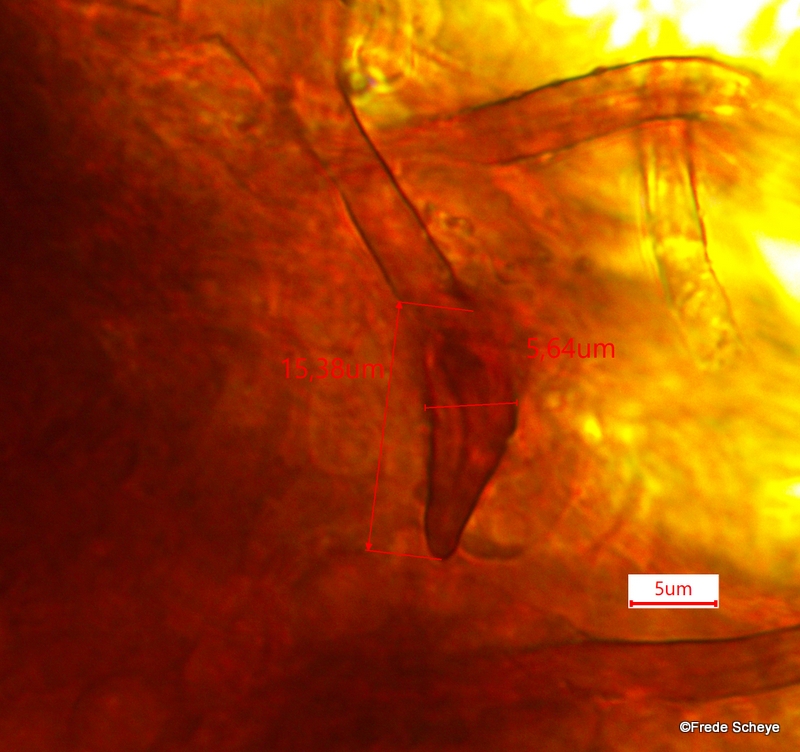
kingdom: Fungi
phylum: Basidiomycota
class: Agaricomycetes
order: Hymenochaetales
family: Hymenochaetaceae
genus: Phellinus
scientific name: Phellinus igniarius
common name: almindelig ildporesvamp
